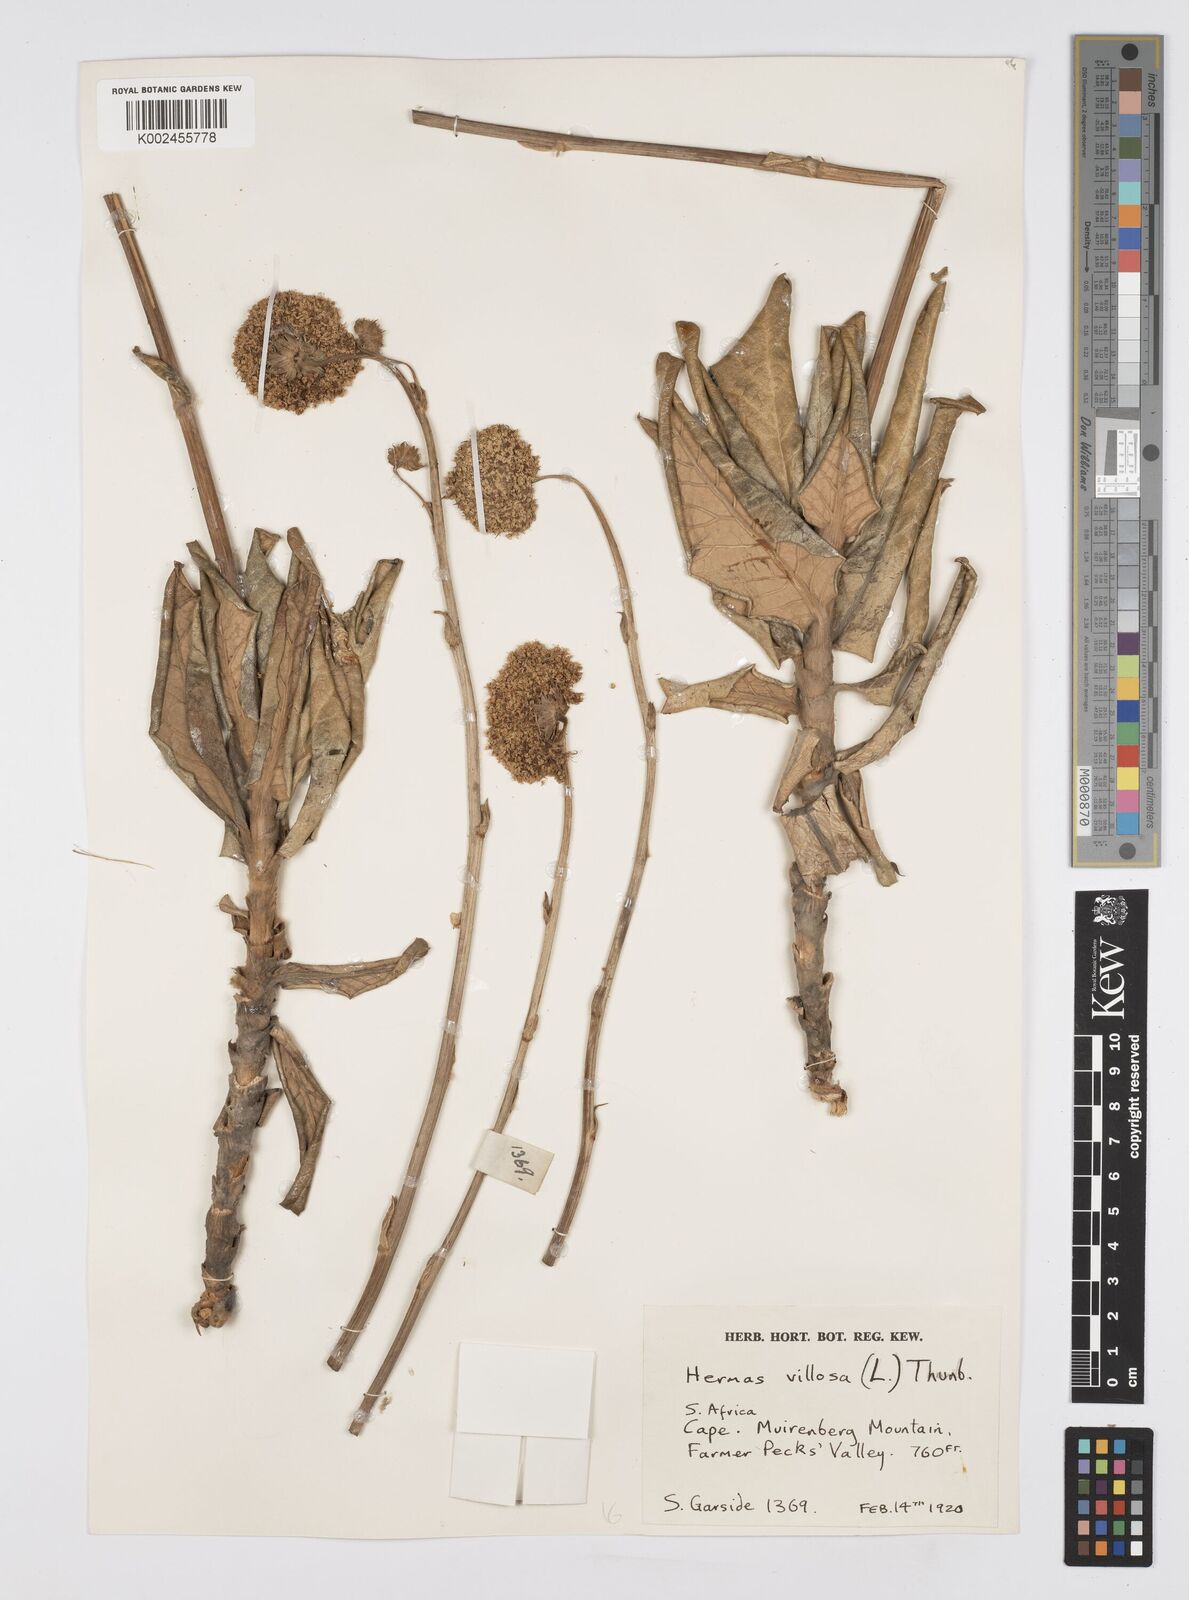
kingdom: Plantae
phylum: Tracheophyta
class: Magnoliopsida
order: Apiales
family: Apiaceae
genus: Hermas
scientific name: Hermas villosa
